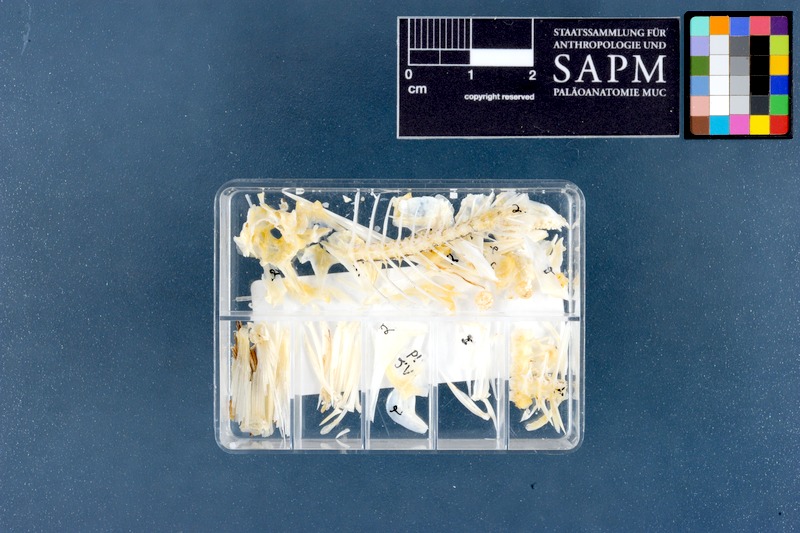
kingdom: Animalia
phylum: Chordata
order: Perciformes
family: Sparidae
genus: Acanthopagrus
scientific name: Acanthopagrus bifasciatus
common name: Twobar seabream
